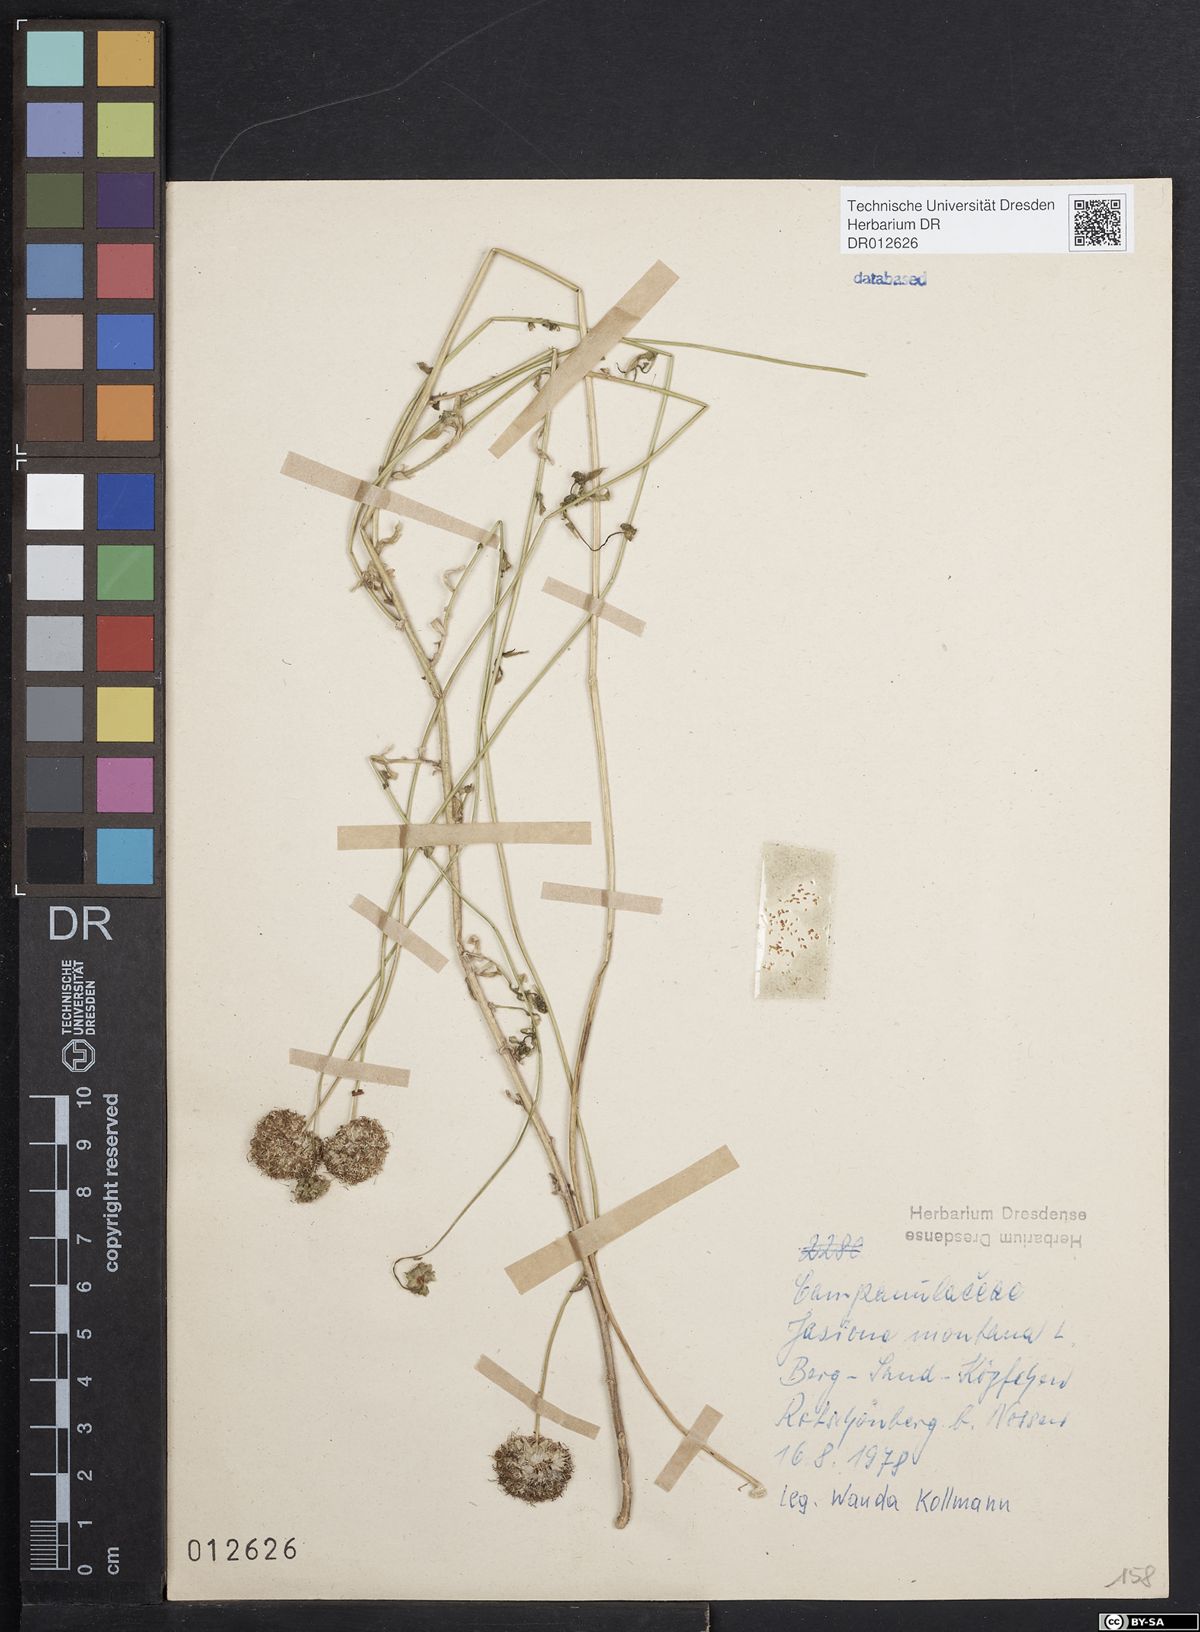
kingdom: Plantae
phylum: Tracheophyta
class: Magnoliopsida
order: Asterales
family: Campanulaceae
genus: Jasione
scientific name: Jasione montana
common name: Sheep's-bit
